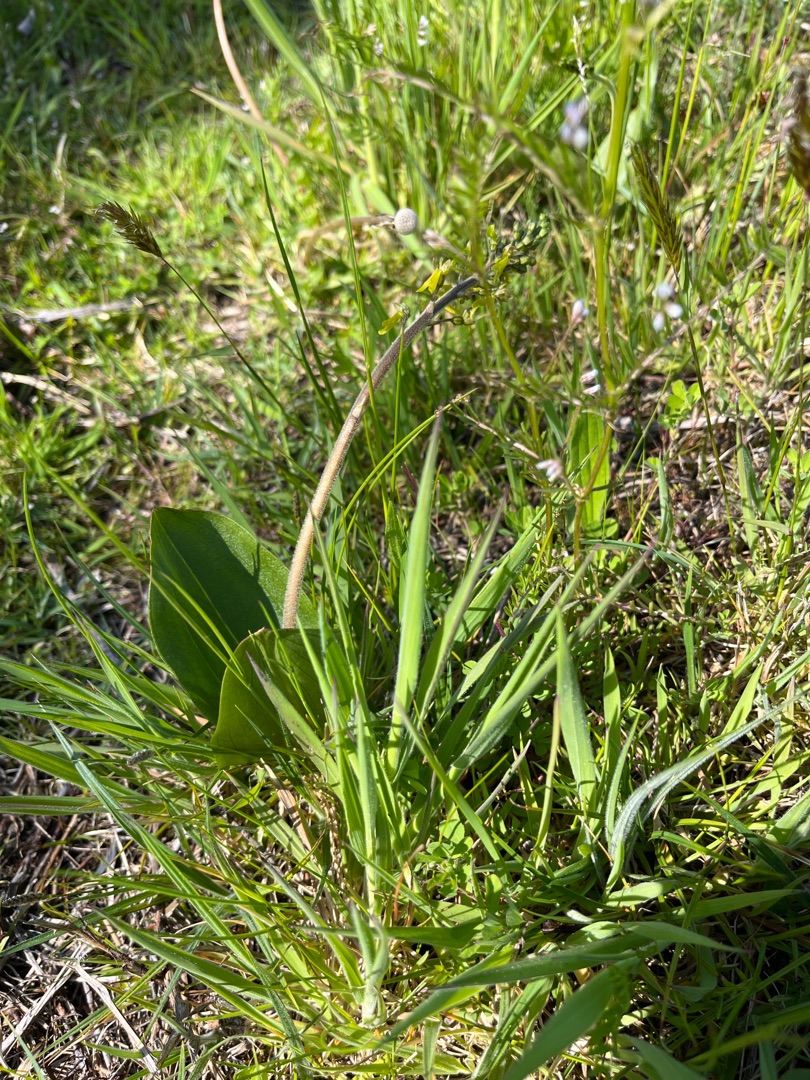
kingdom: Plantae
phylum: Tracheophyta
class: Liliopsida
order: Asparagales
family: Orchidaceae
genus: Neottia
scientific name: Neottia ovata
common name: Ægbladet fliglæbe
